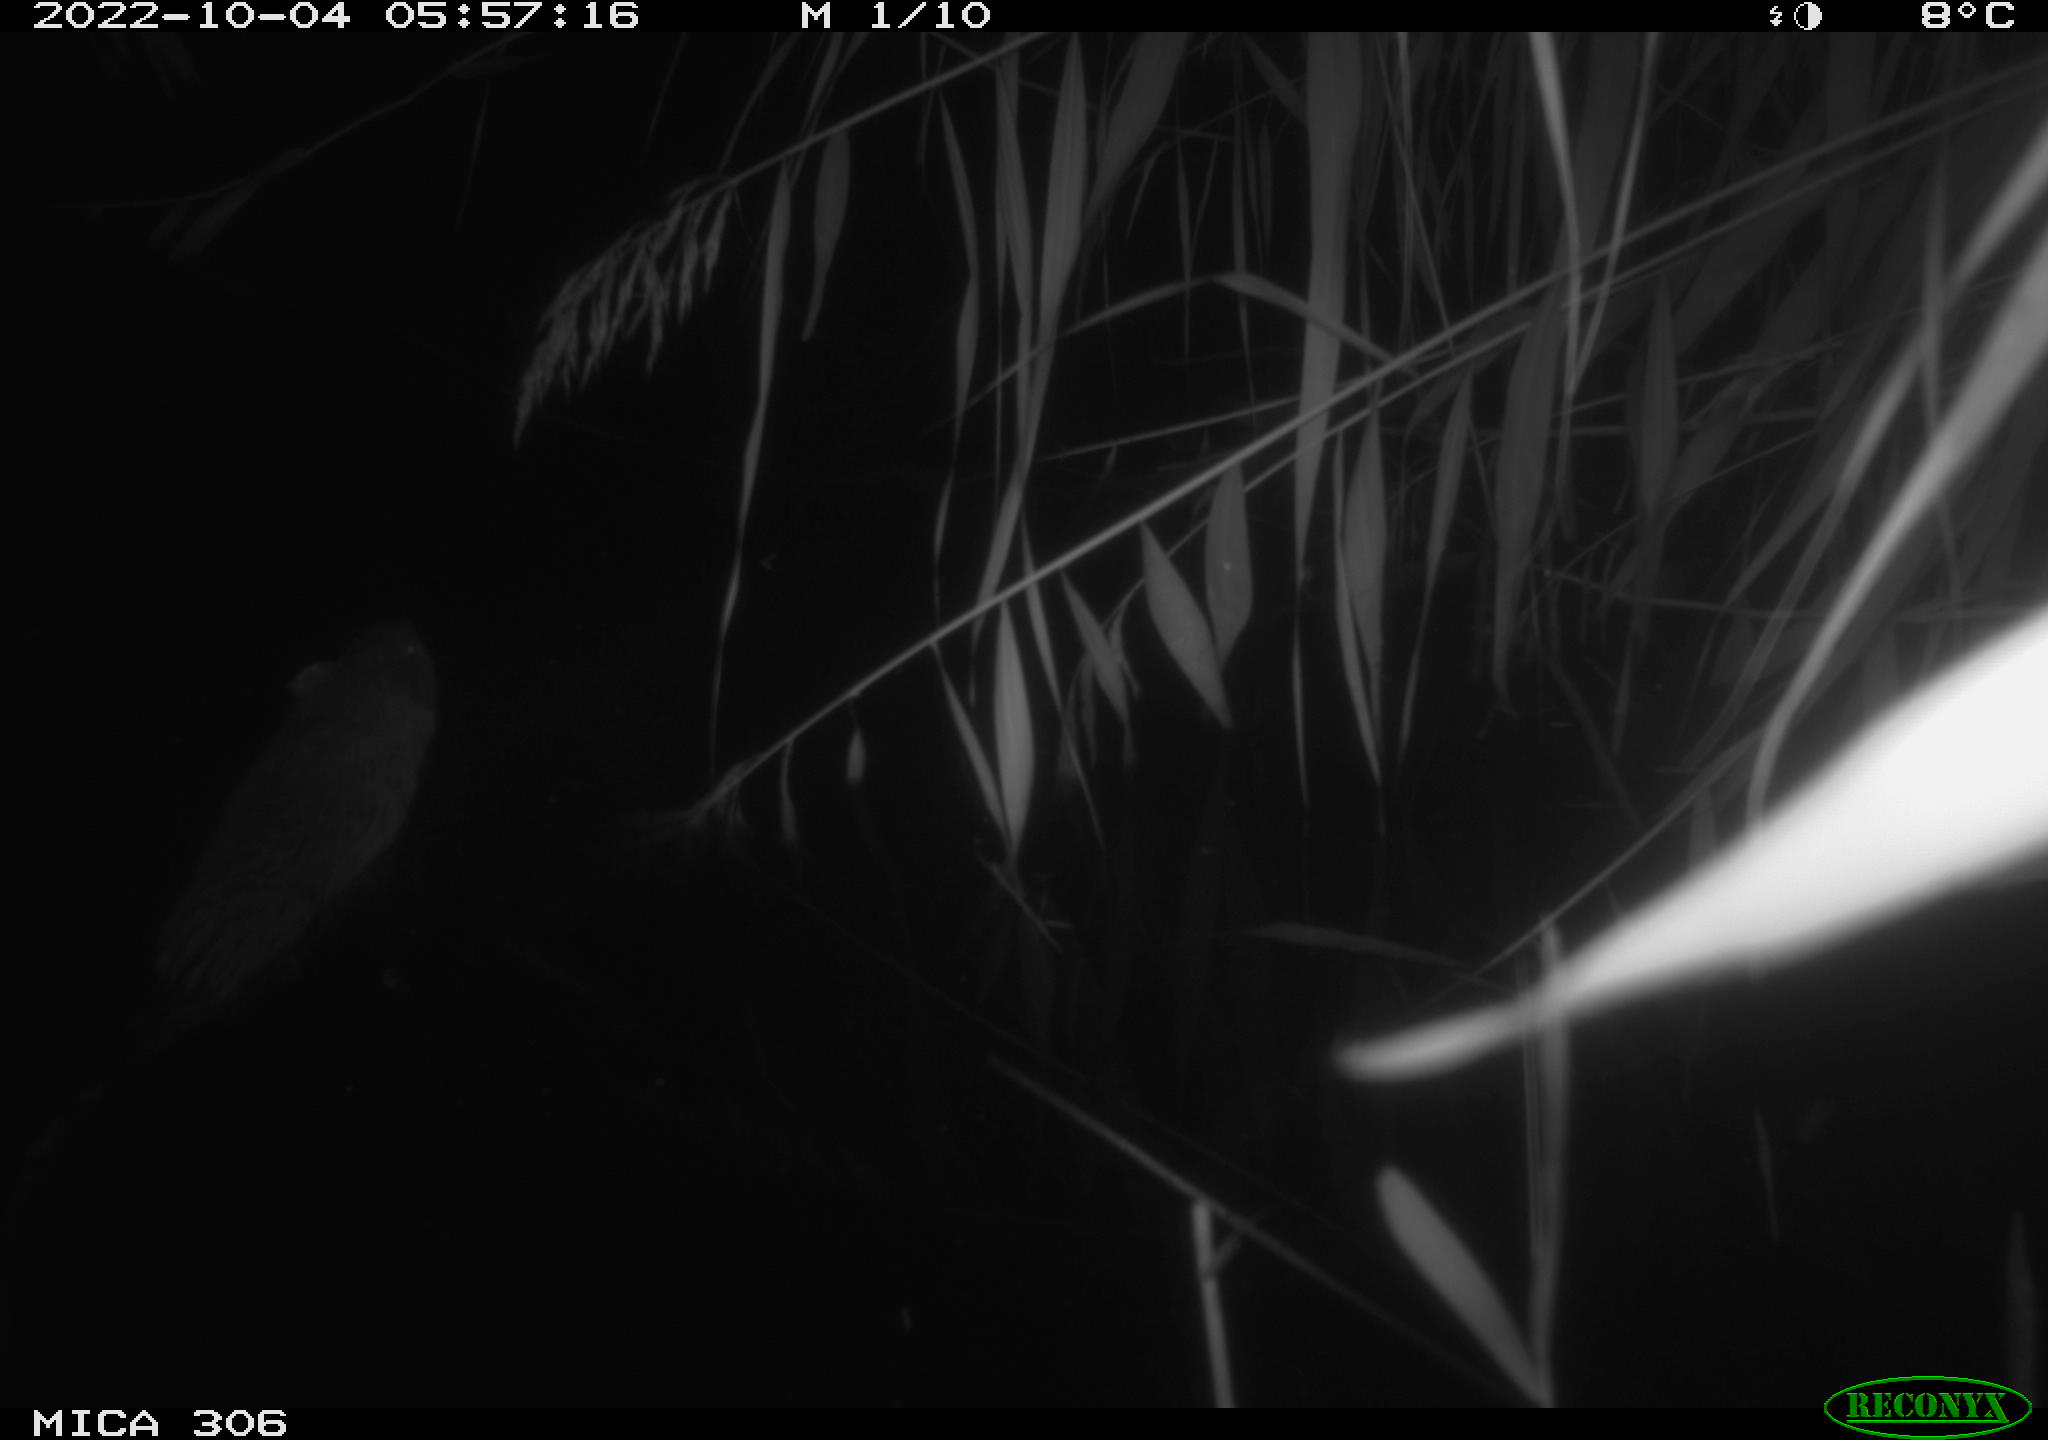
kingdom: Animalia
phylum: Chordata
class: Mammalia
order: Rodentia
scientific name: Rodentia
